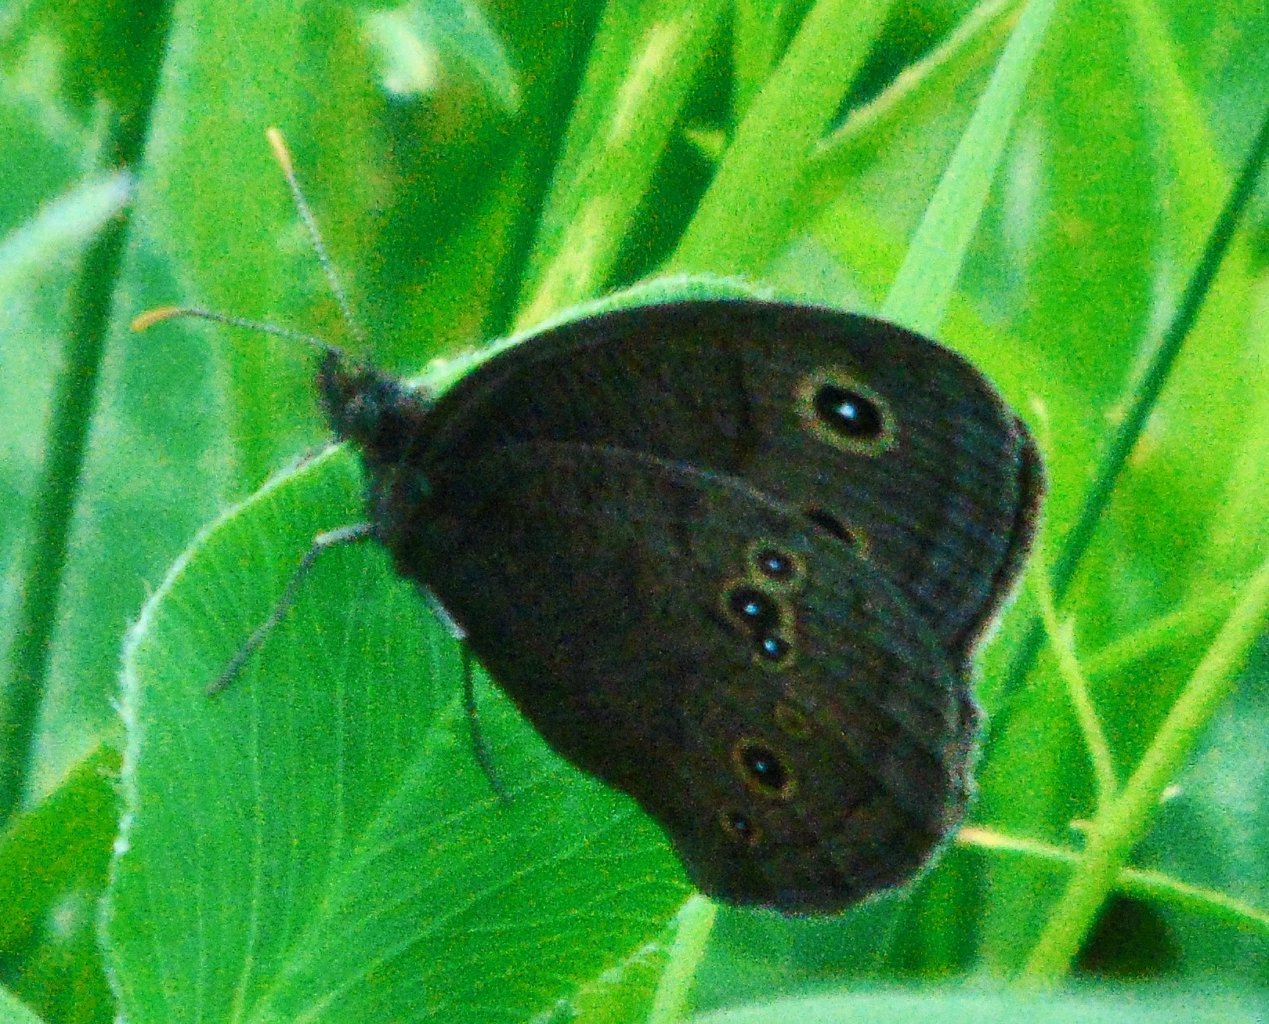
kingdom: Animalia
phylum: Arthropoda
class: Insecta
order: Lepidoptera
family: Nymphalidae
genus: Cercyonis
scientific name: Cercyonis pegala
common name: Common Wood-Nymph
